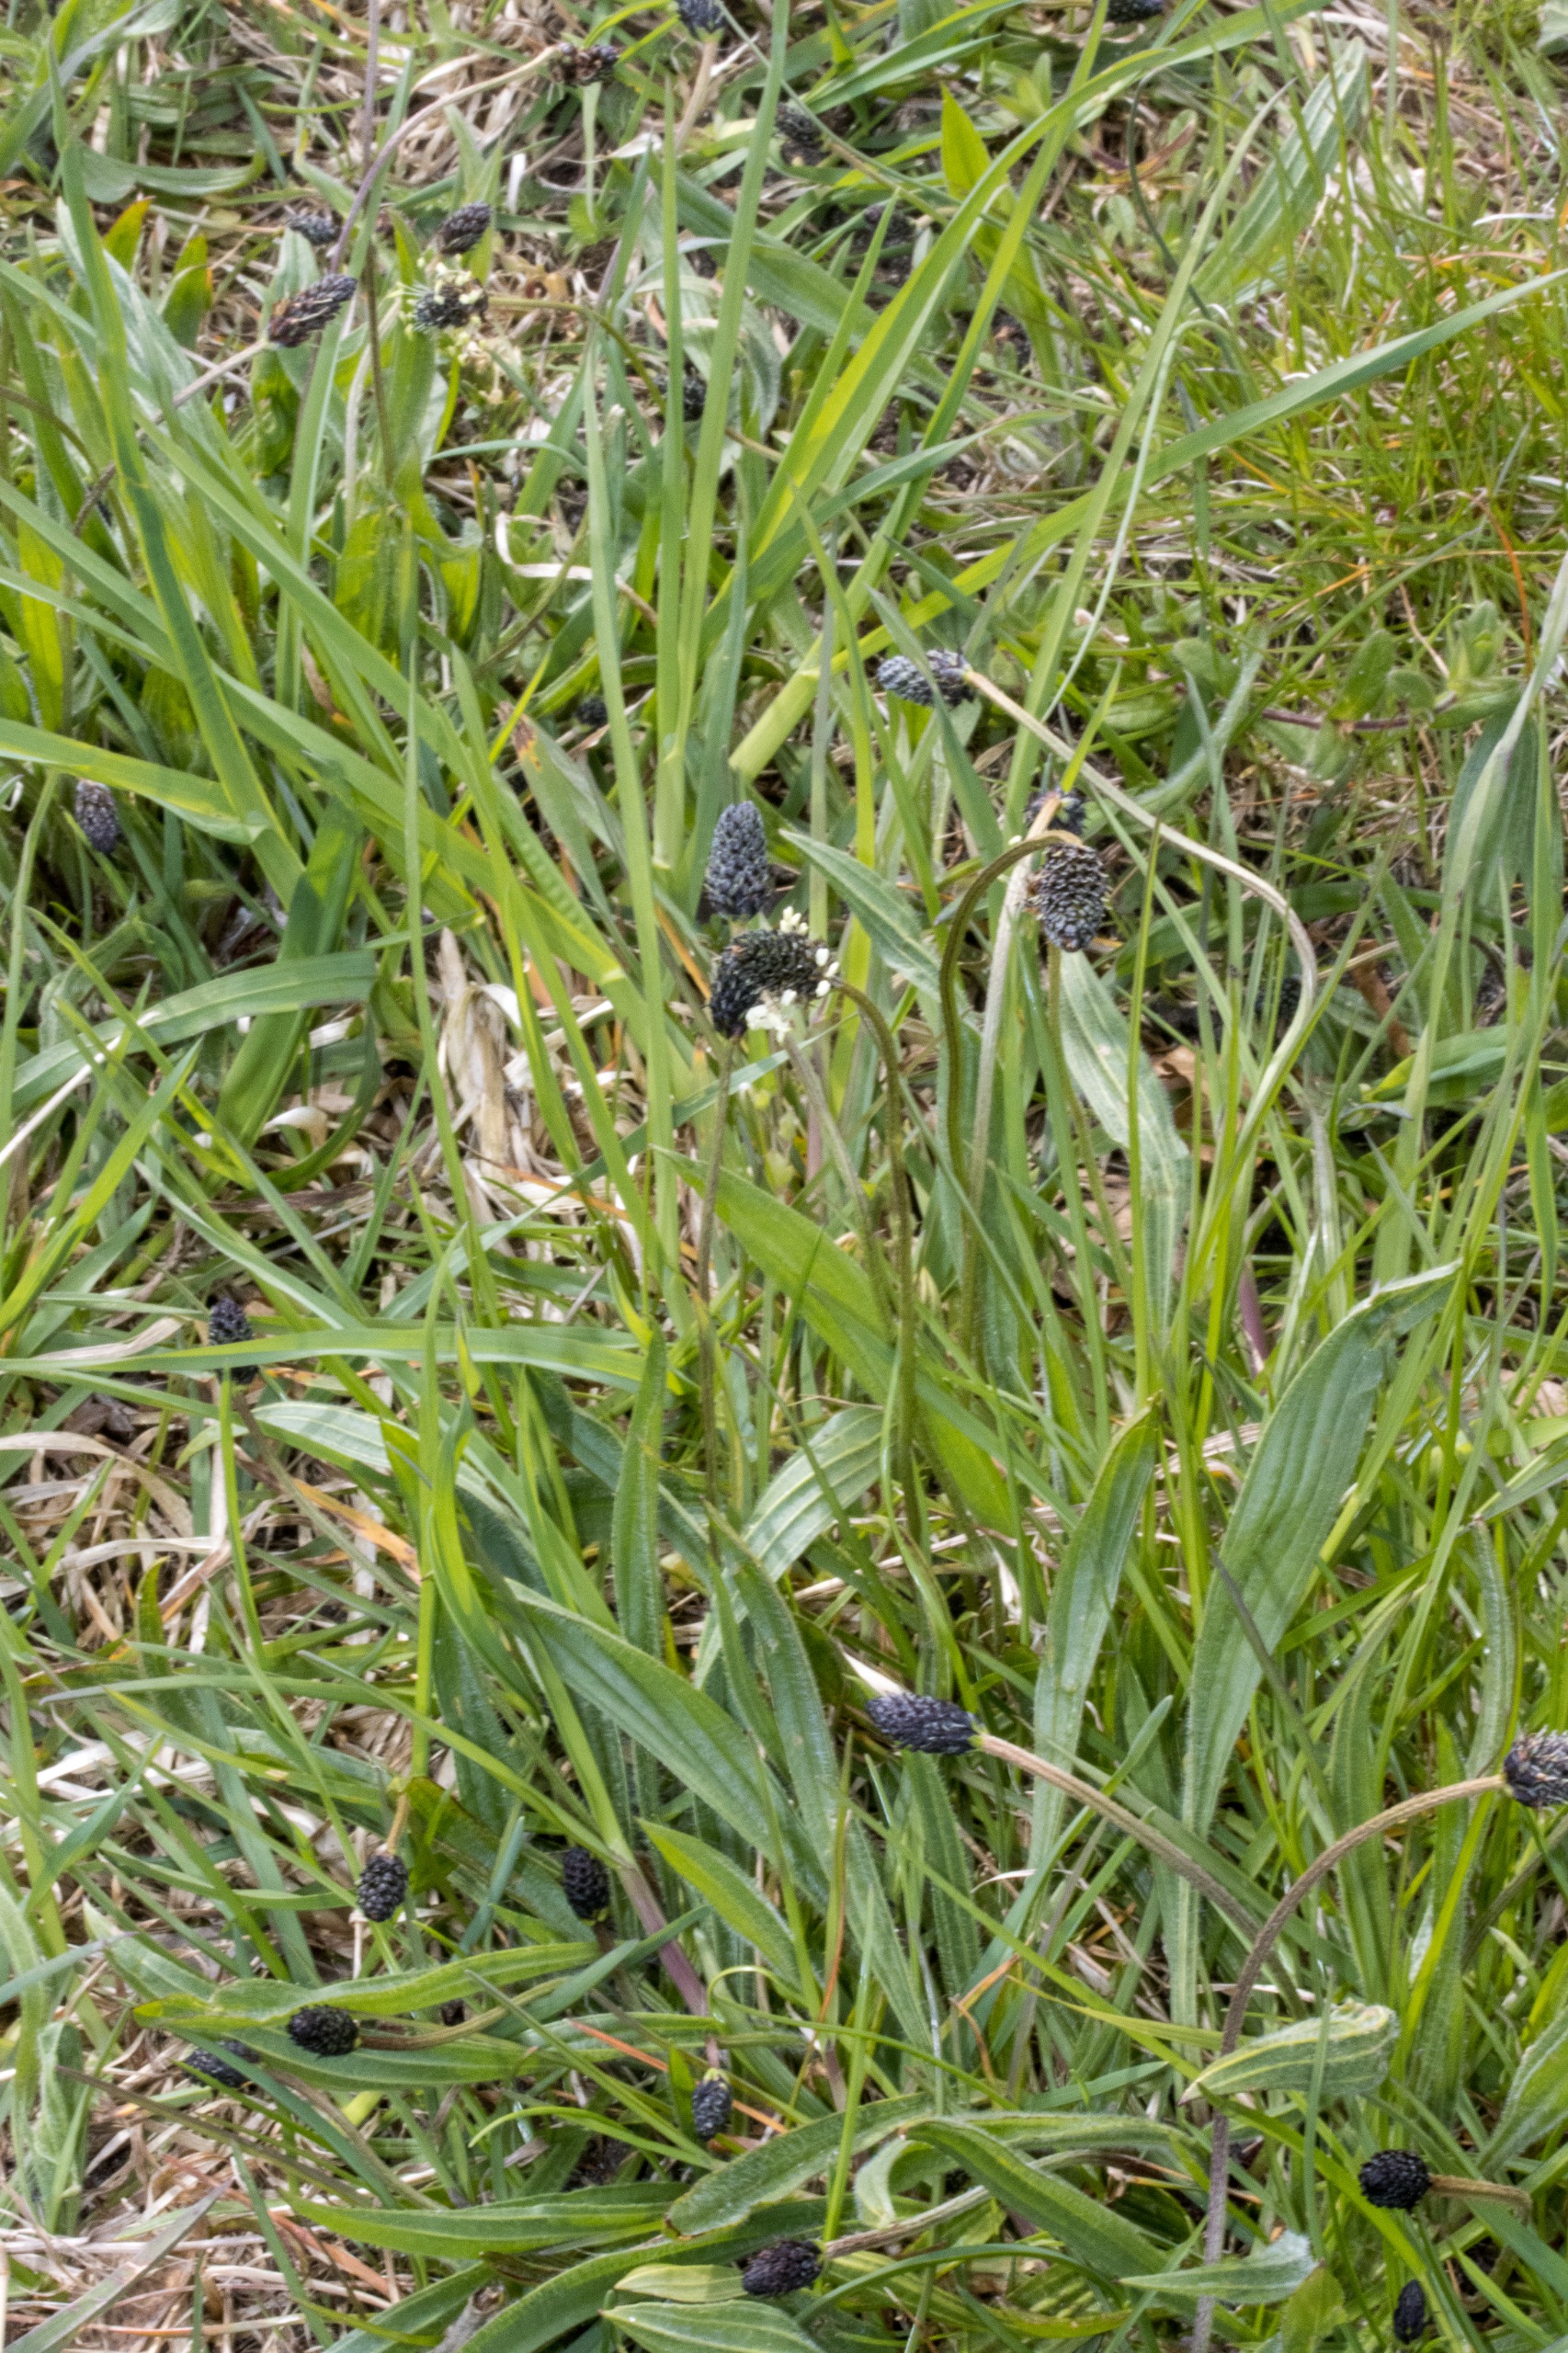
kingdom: Plantae
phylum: Tracheophyta
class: Magnoliopsida
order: Lamiales
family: Plantaginaceae
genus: Plantago
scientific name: Plantago lanceolata
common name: Lancet-vejbred
